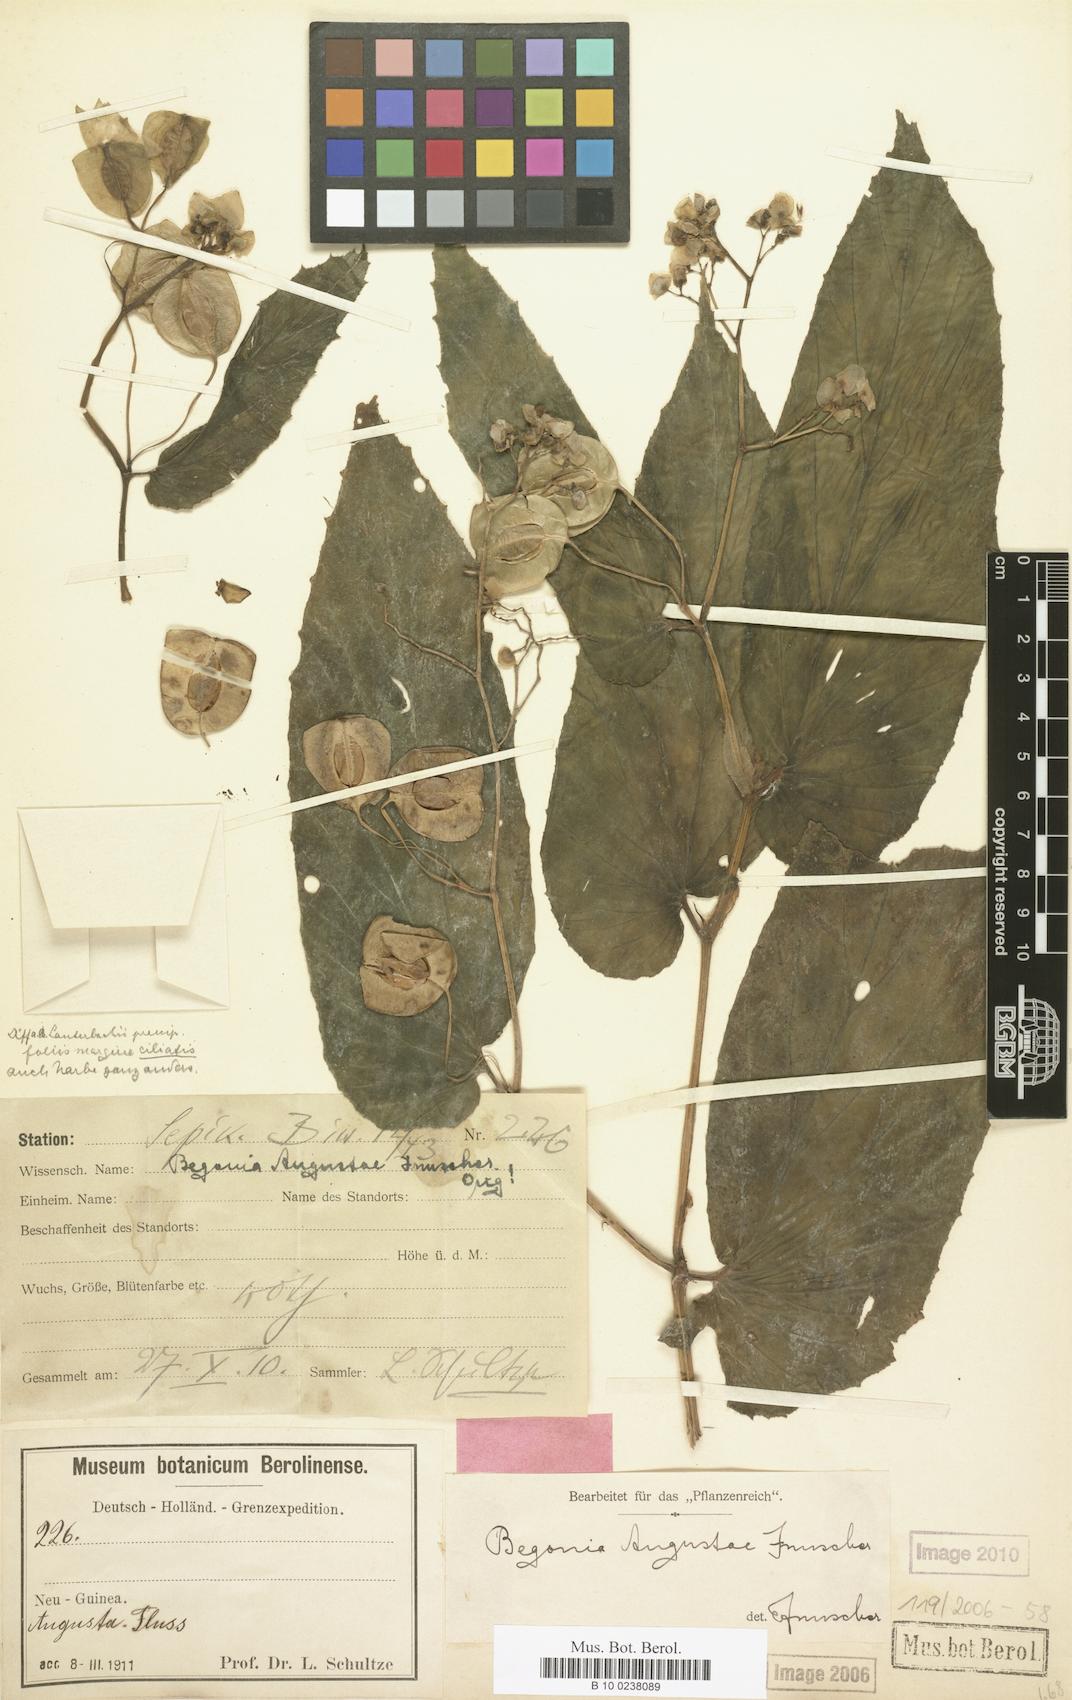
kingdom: Plantae
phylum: Tracheophyta
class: Magnoliopsida
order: Cucurbitales
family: Begoniaceae
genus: Begonia
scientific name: Begonia augustae
